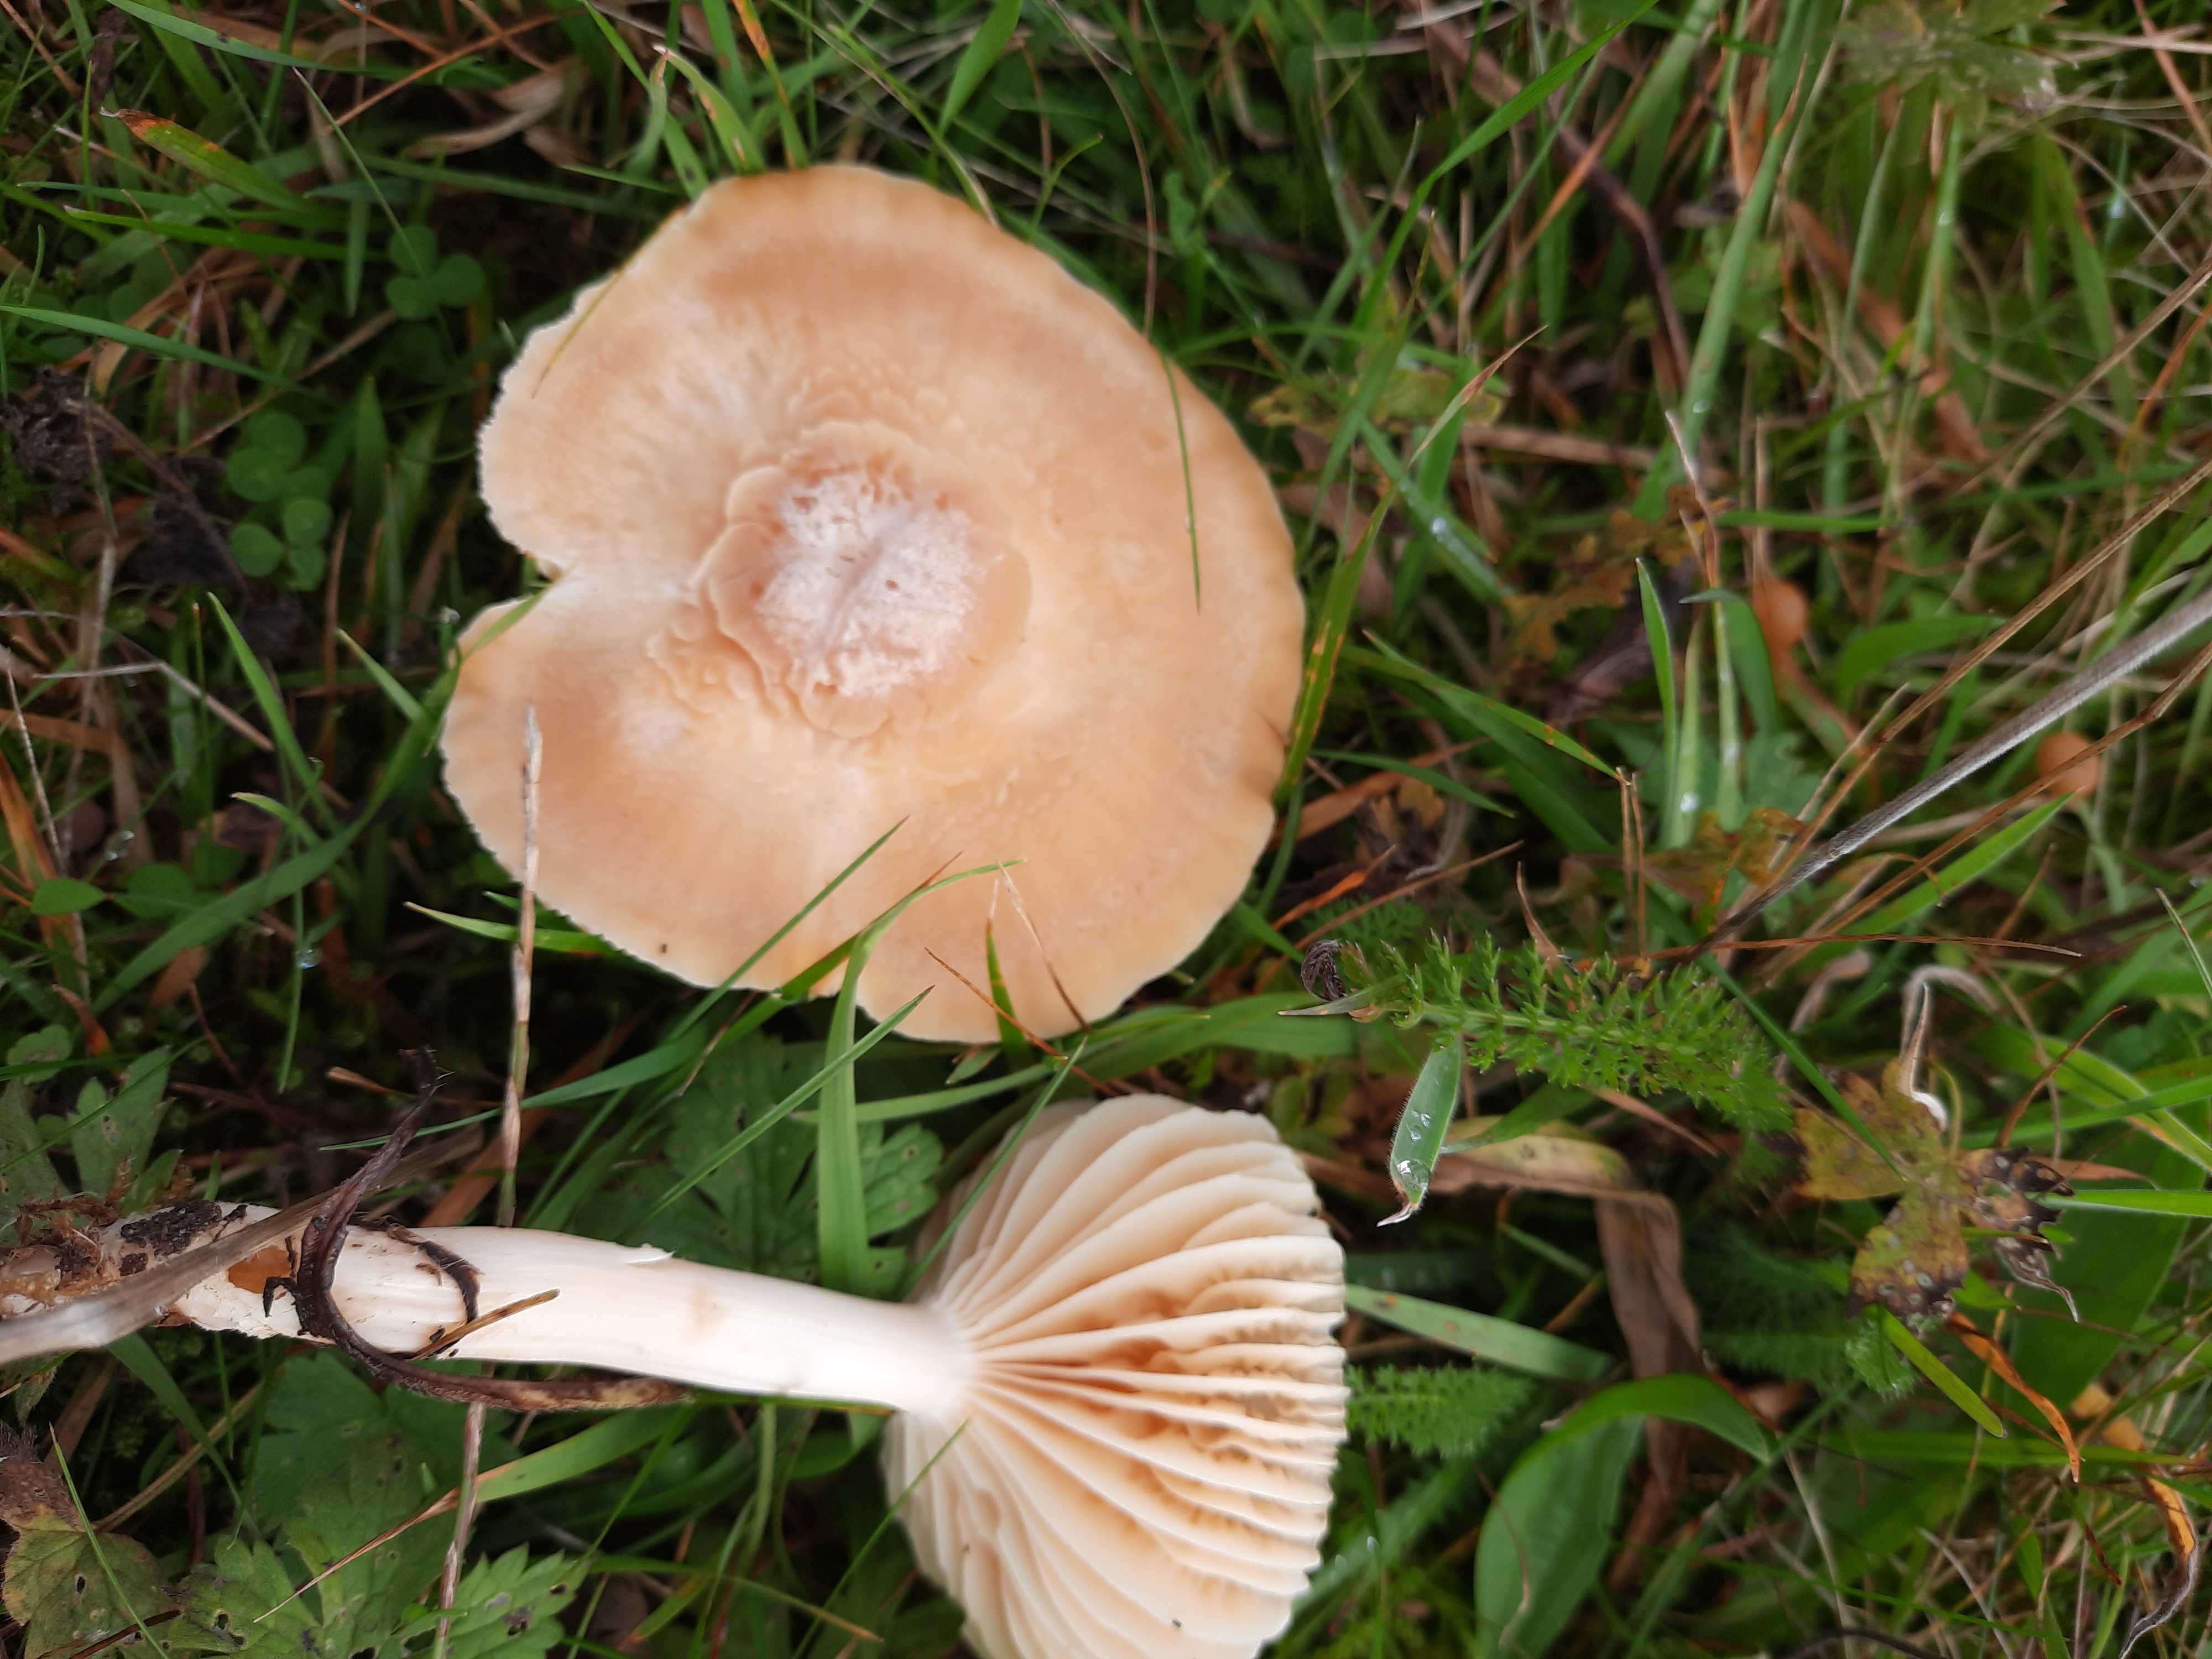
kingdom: Fungi
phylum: Basidiomycota
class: Agaricomycetes
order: Agaricales
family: Hygrophoraceae
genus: Cuphophyllus
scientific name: Cuphophyllus pratensis
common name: eng-vokshat
